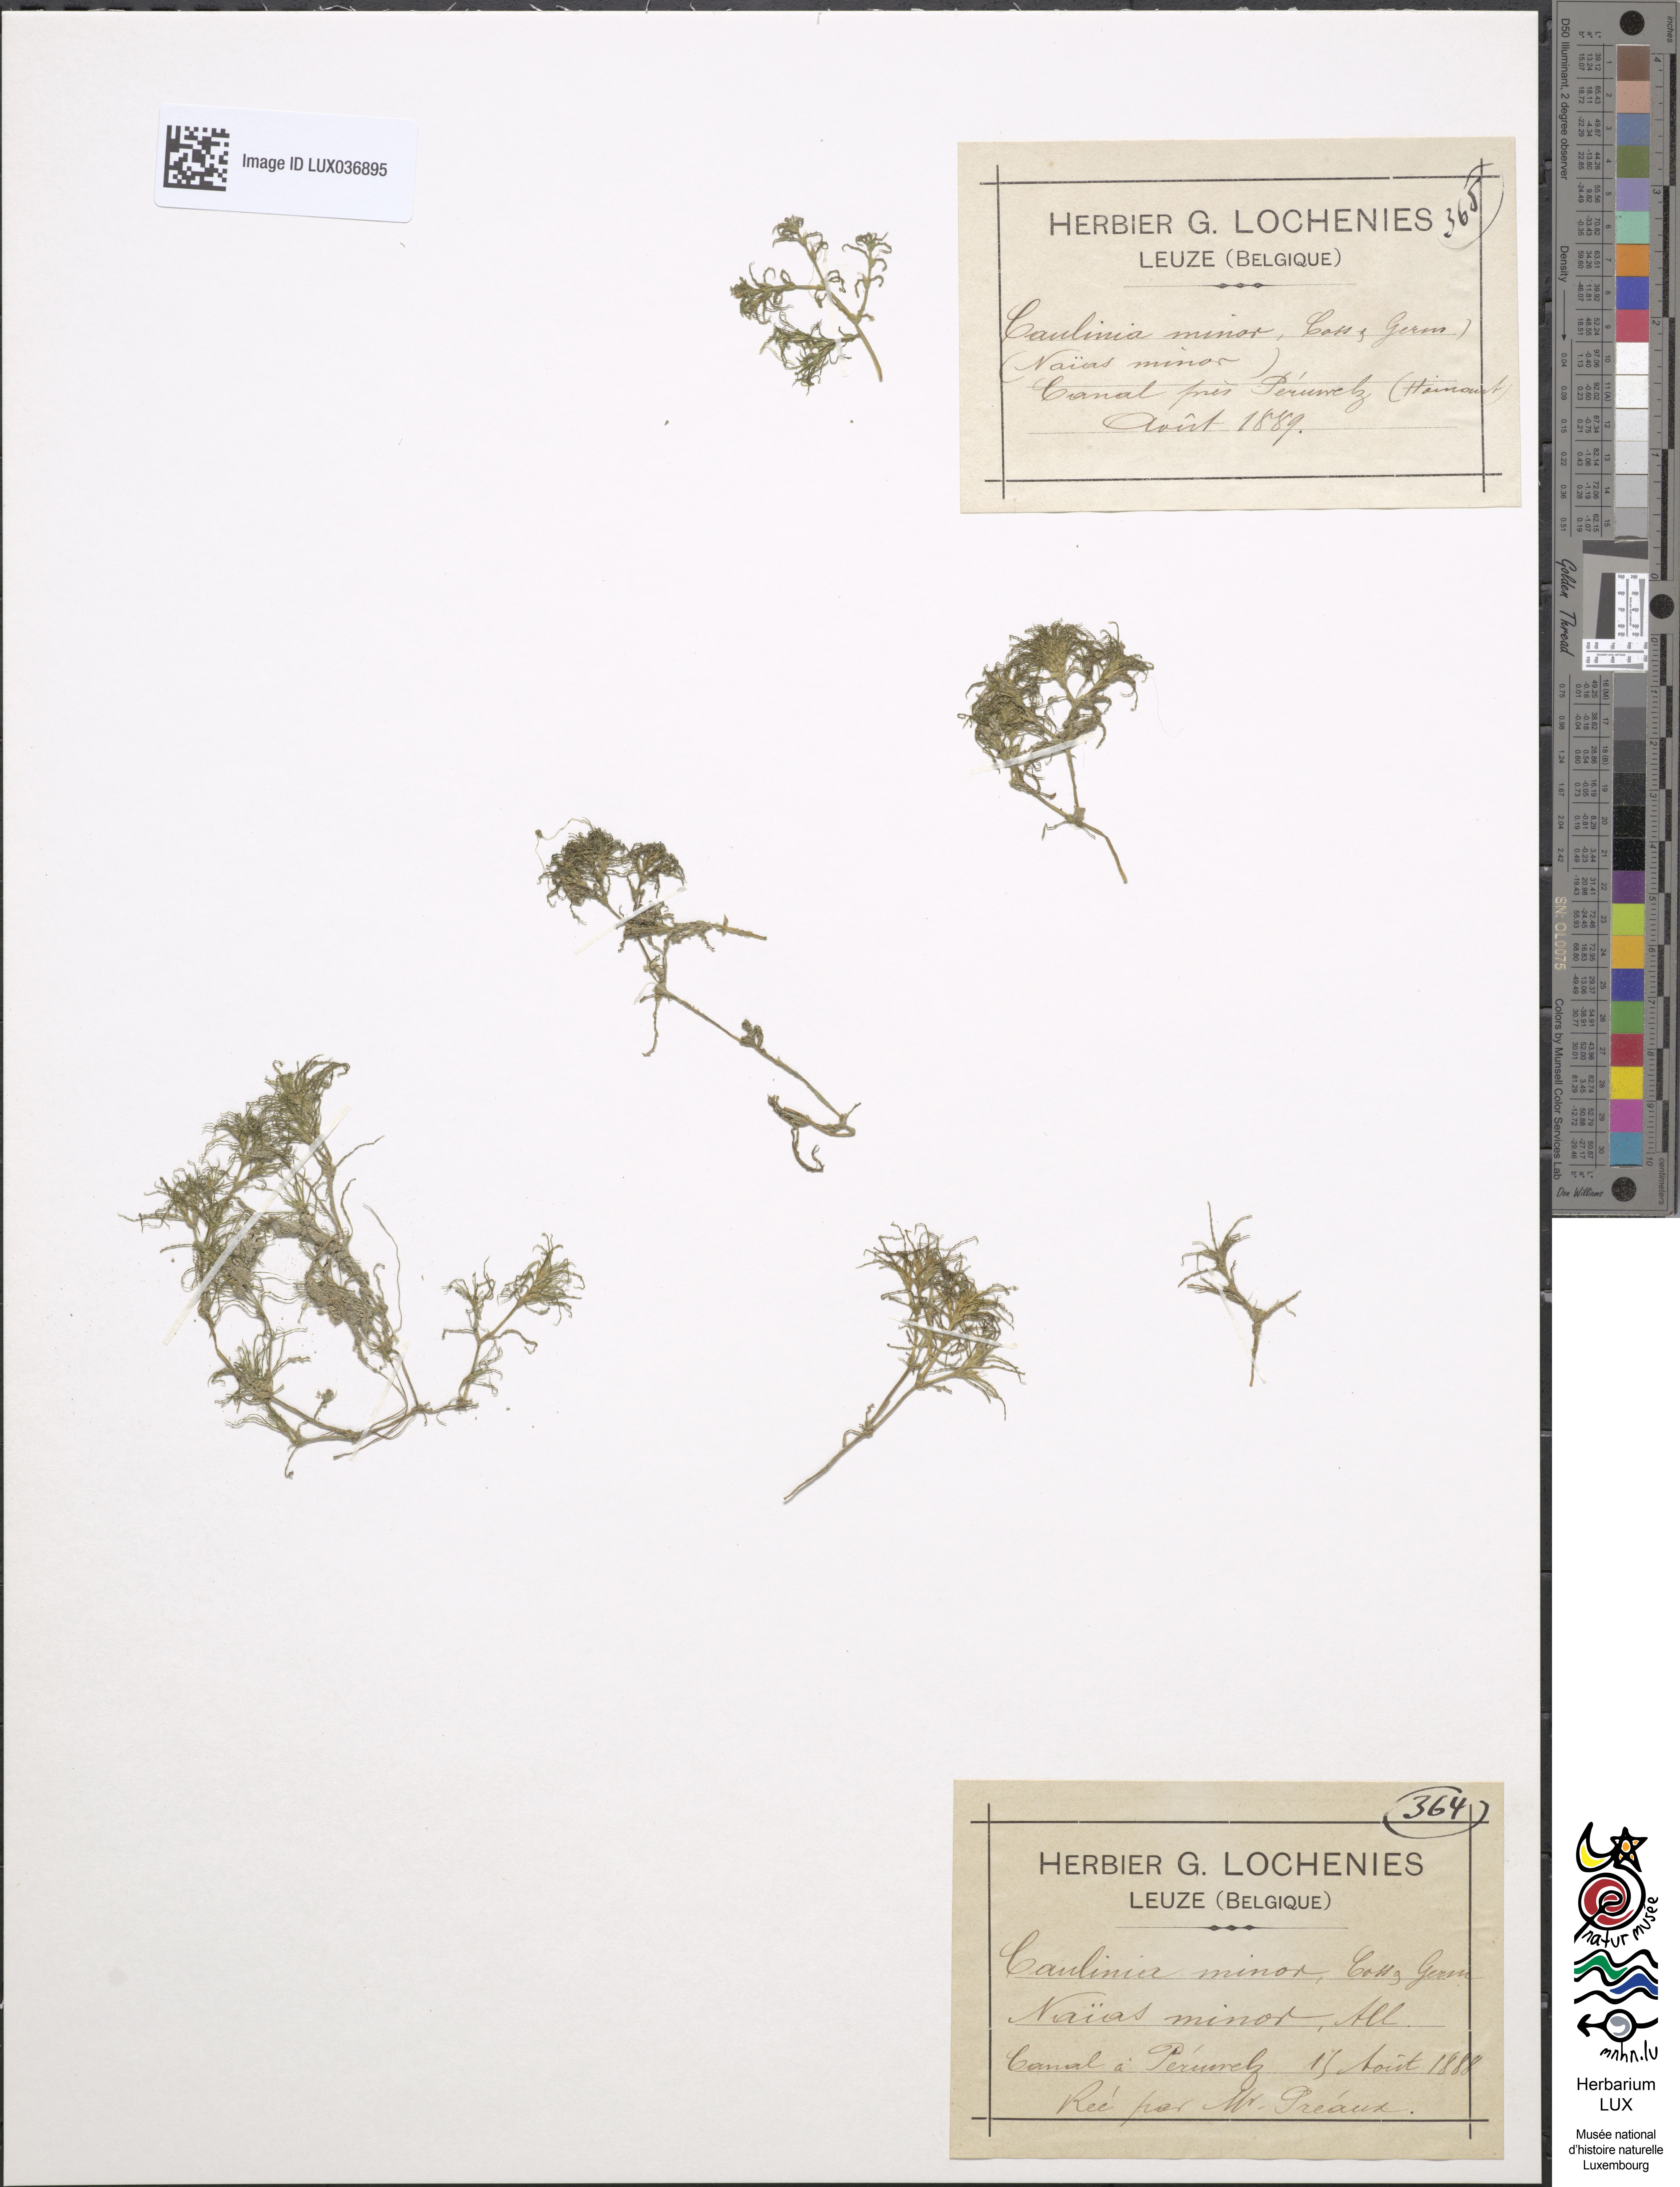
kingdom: Plantae
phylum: Tracheophyta
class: Liliopsida
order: Alismatales
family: Hydrocharitaceae
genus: Najas
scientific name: Najas minor
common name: Brittle naiad
